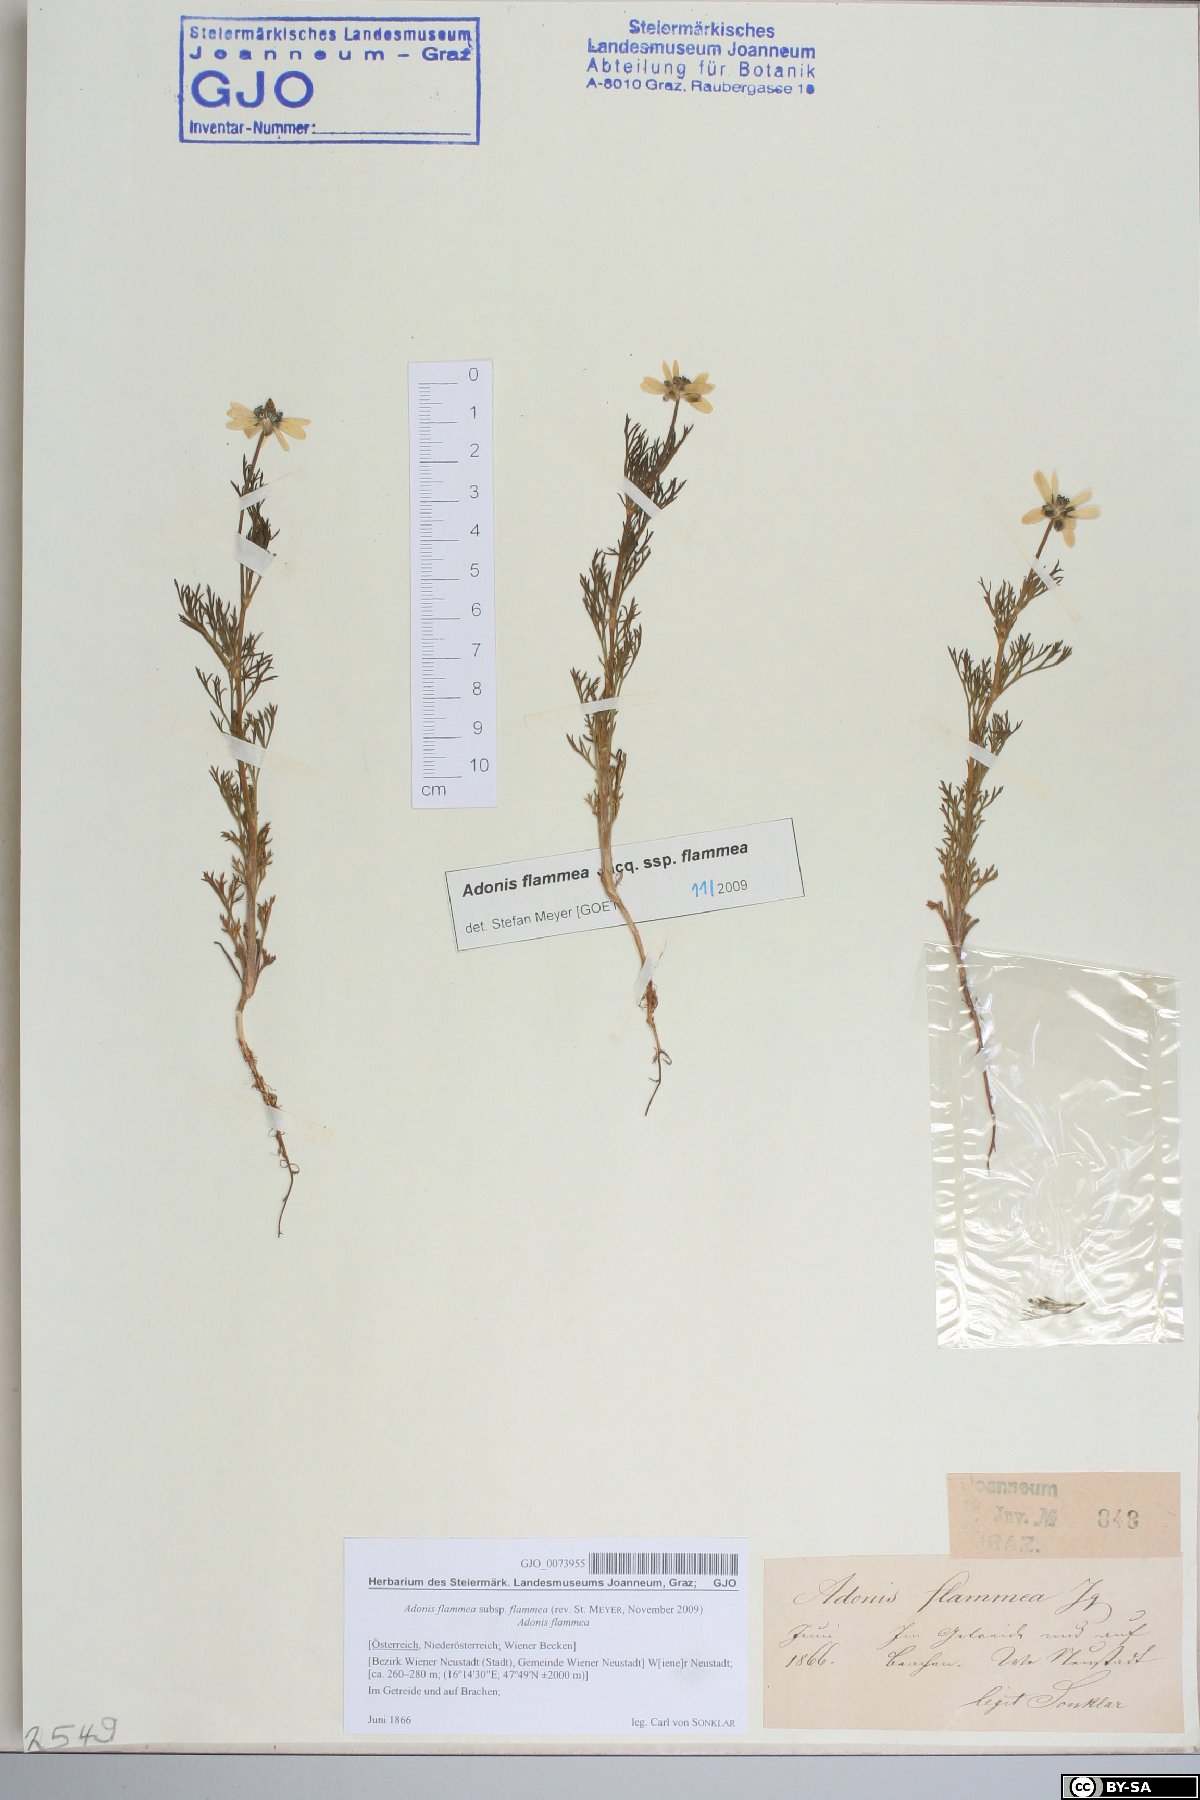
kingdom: Plantae
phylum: Tracheophyta
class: Magnoliopsida
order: Ranunculales
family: Ranunculaceae
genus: Adonis
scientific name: Adonis flammea
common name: Large pheasant's-eye
